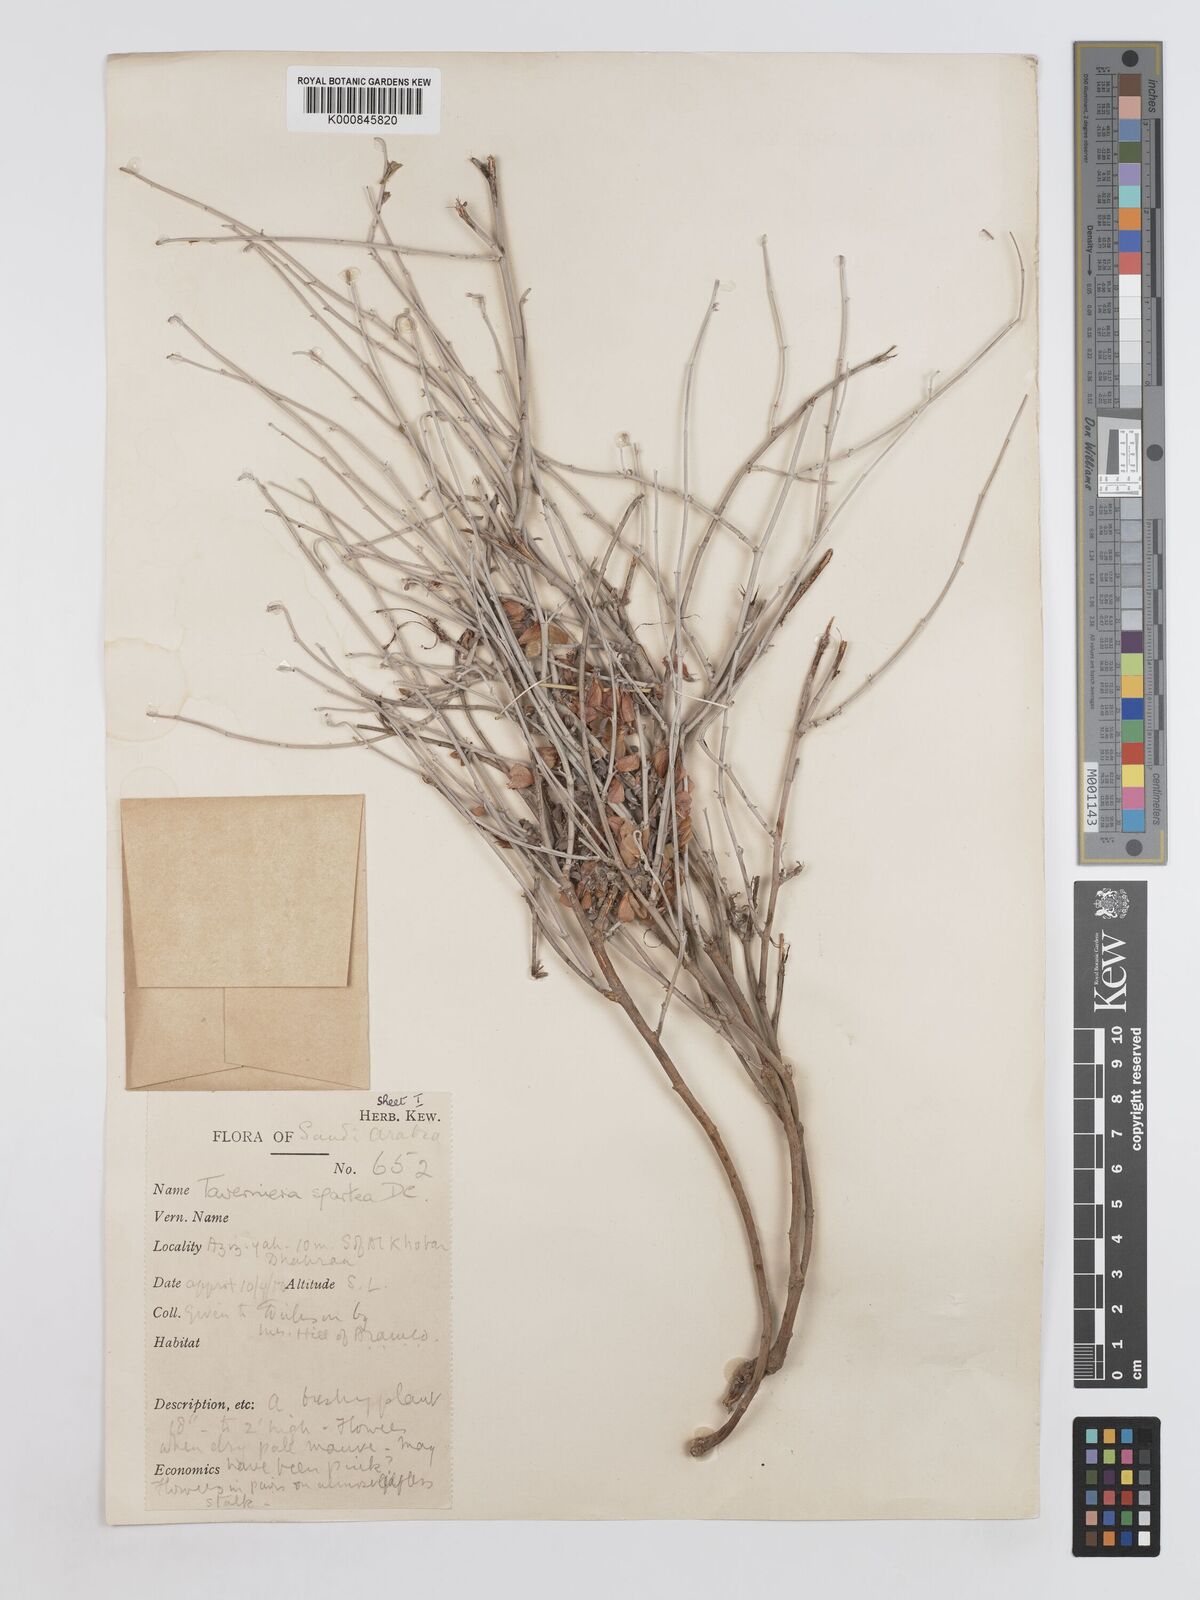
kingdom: Plantae
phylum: Tracheophyta
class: Magnoliopsida
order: Fabales
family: Fabaceae
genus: Taverniera
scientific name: Taverniera spartea
